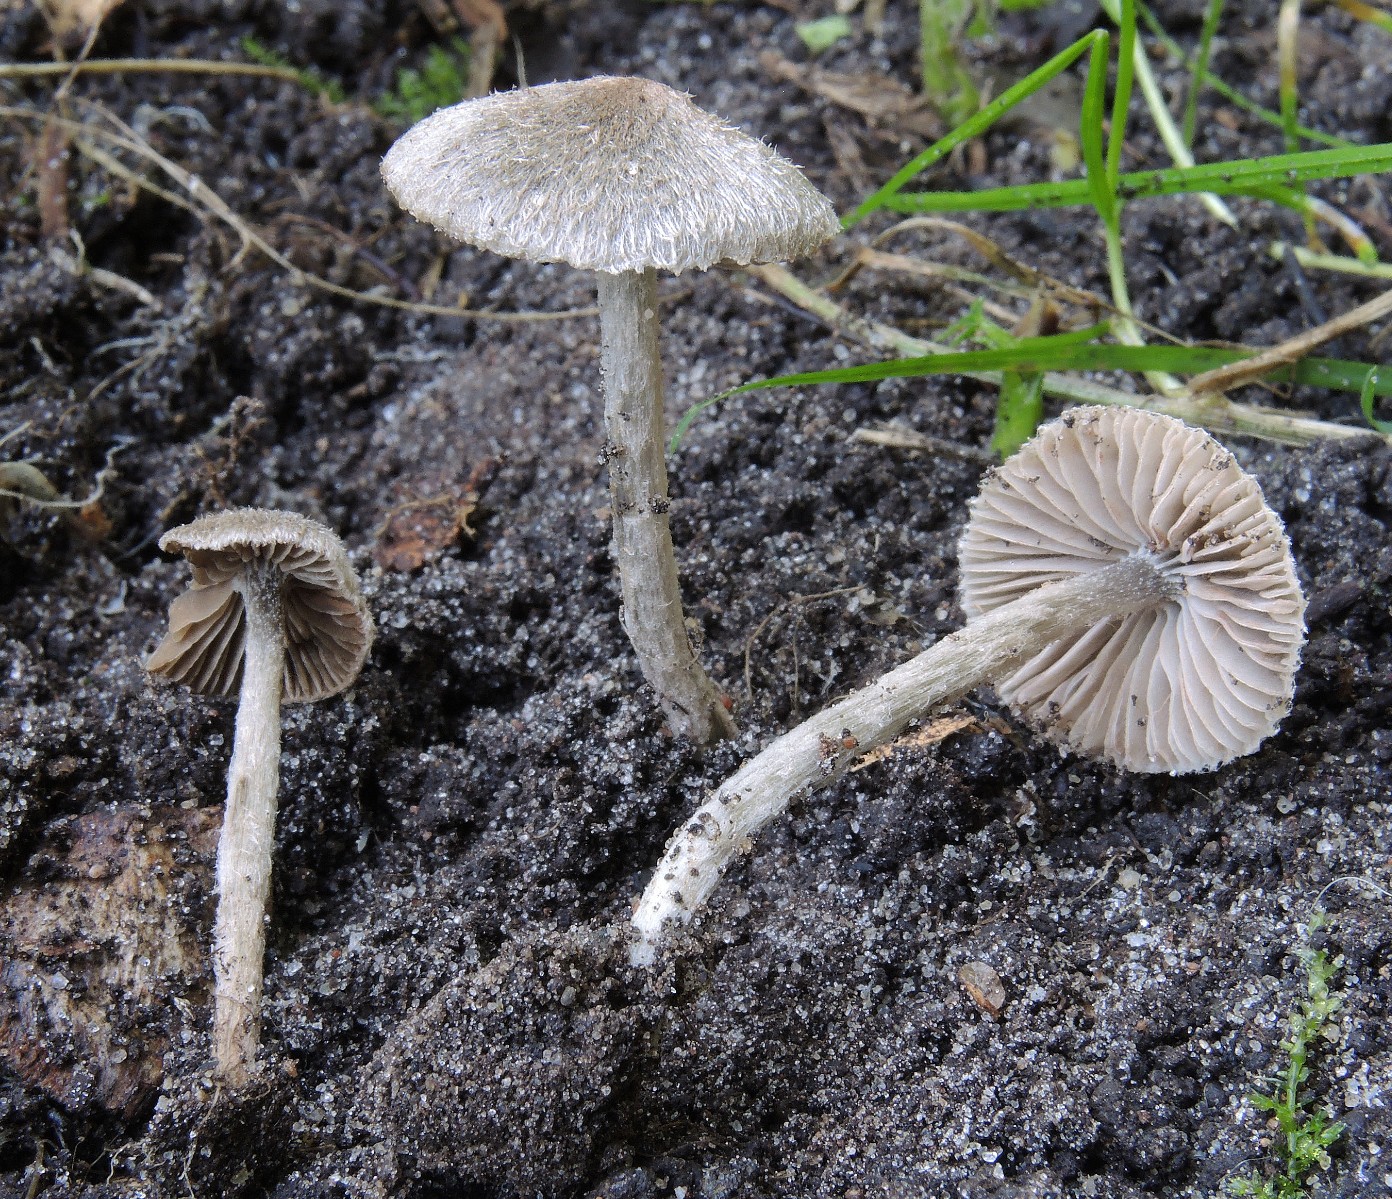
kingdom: Fungi
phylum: Basidiomycota
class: Agaricomycetes
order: Agaricales
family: Entolomataceae
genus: Entoloma
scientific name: Entoloma araneosum
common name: spindelvævs-rødblad
